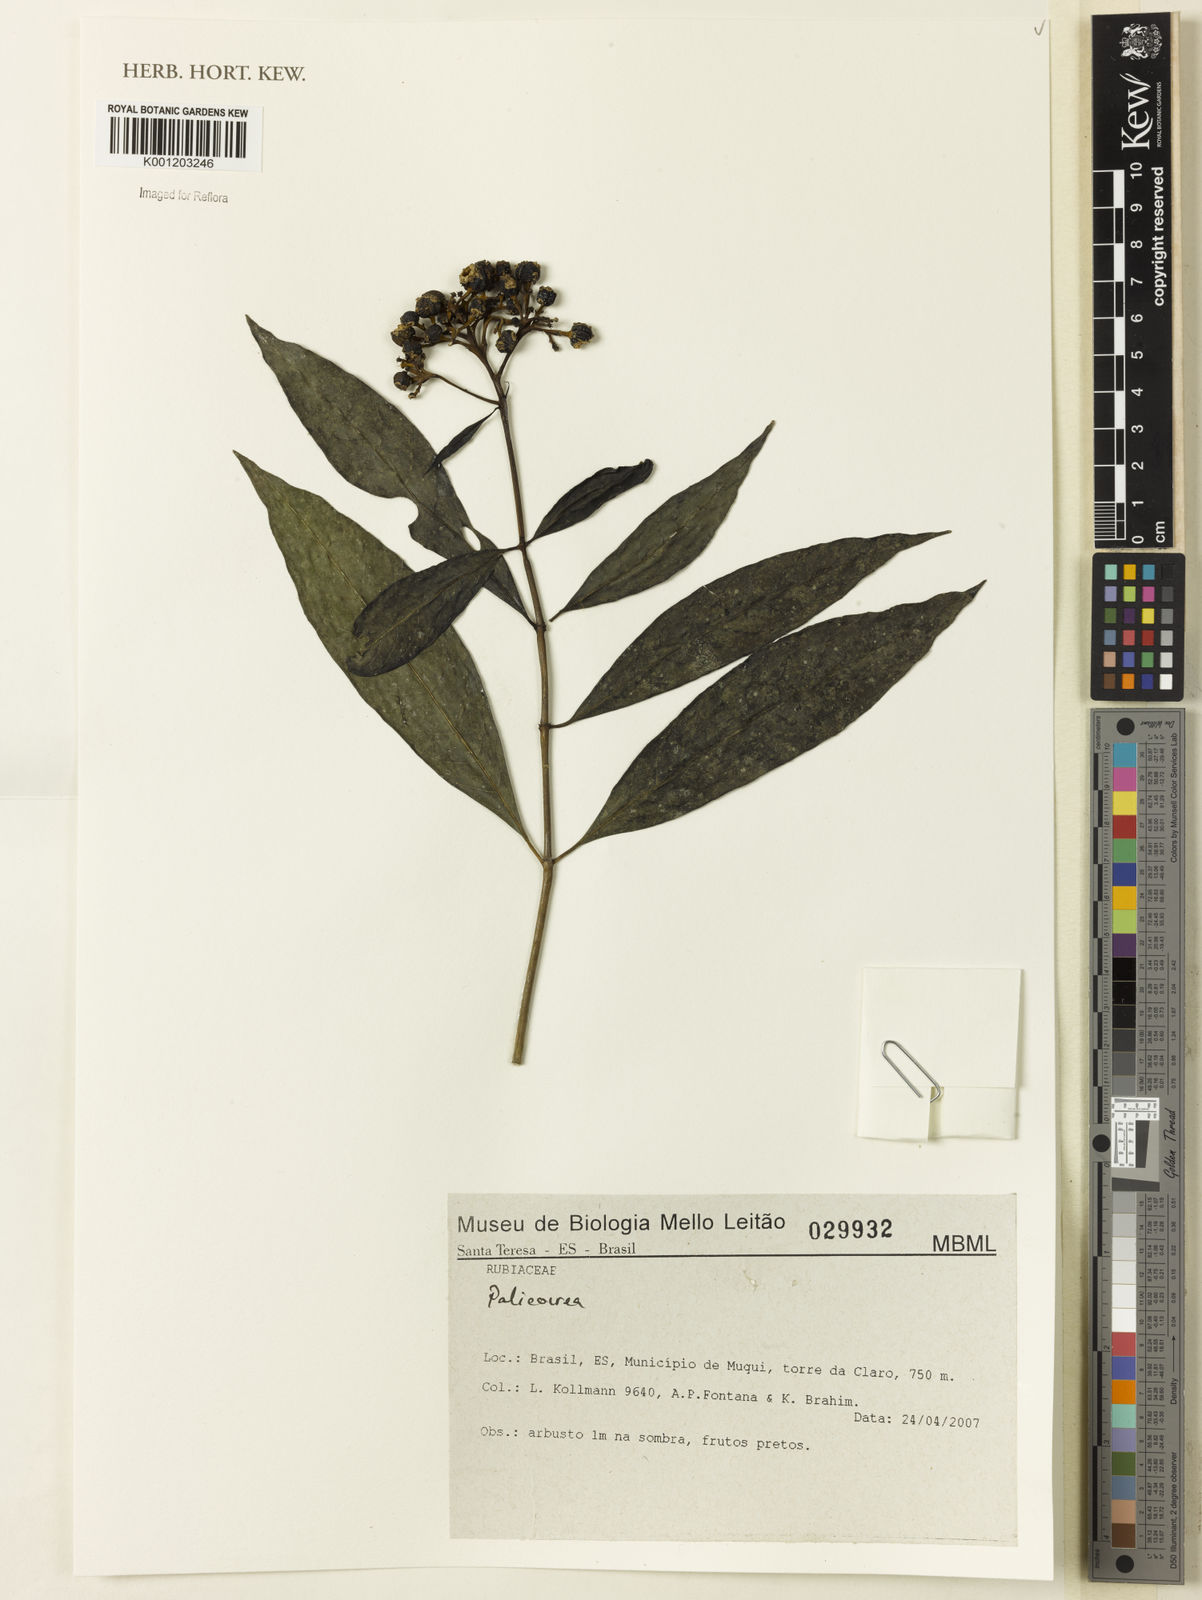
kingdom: Plantae
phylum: Tracheophyta
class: Magnoliopsida
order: Gentianales
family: Rubiaceae
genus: Palicourea
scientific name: Palicourea
